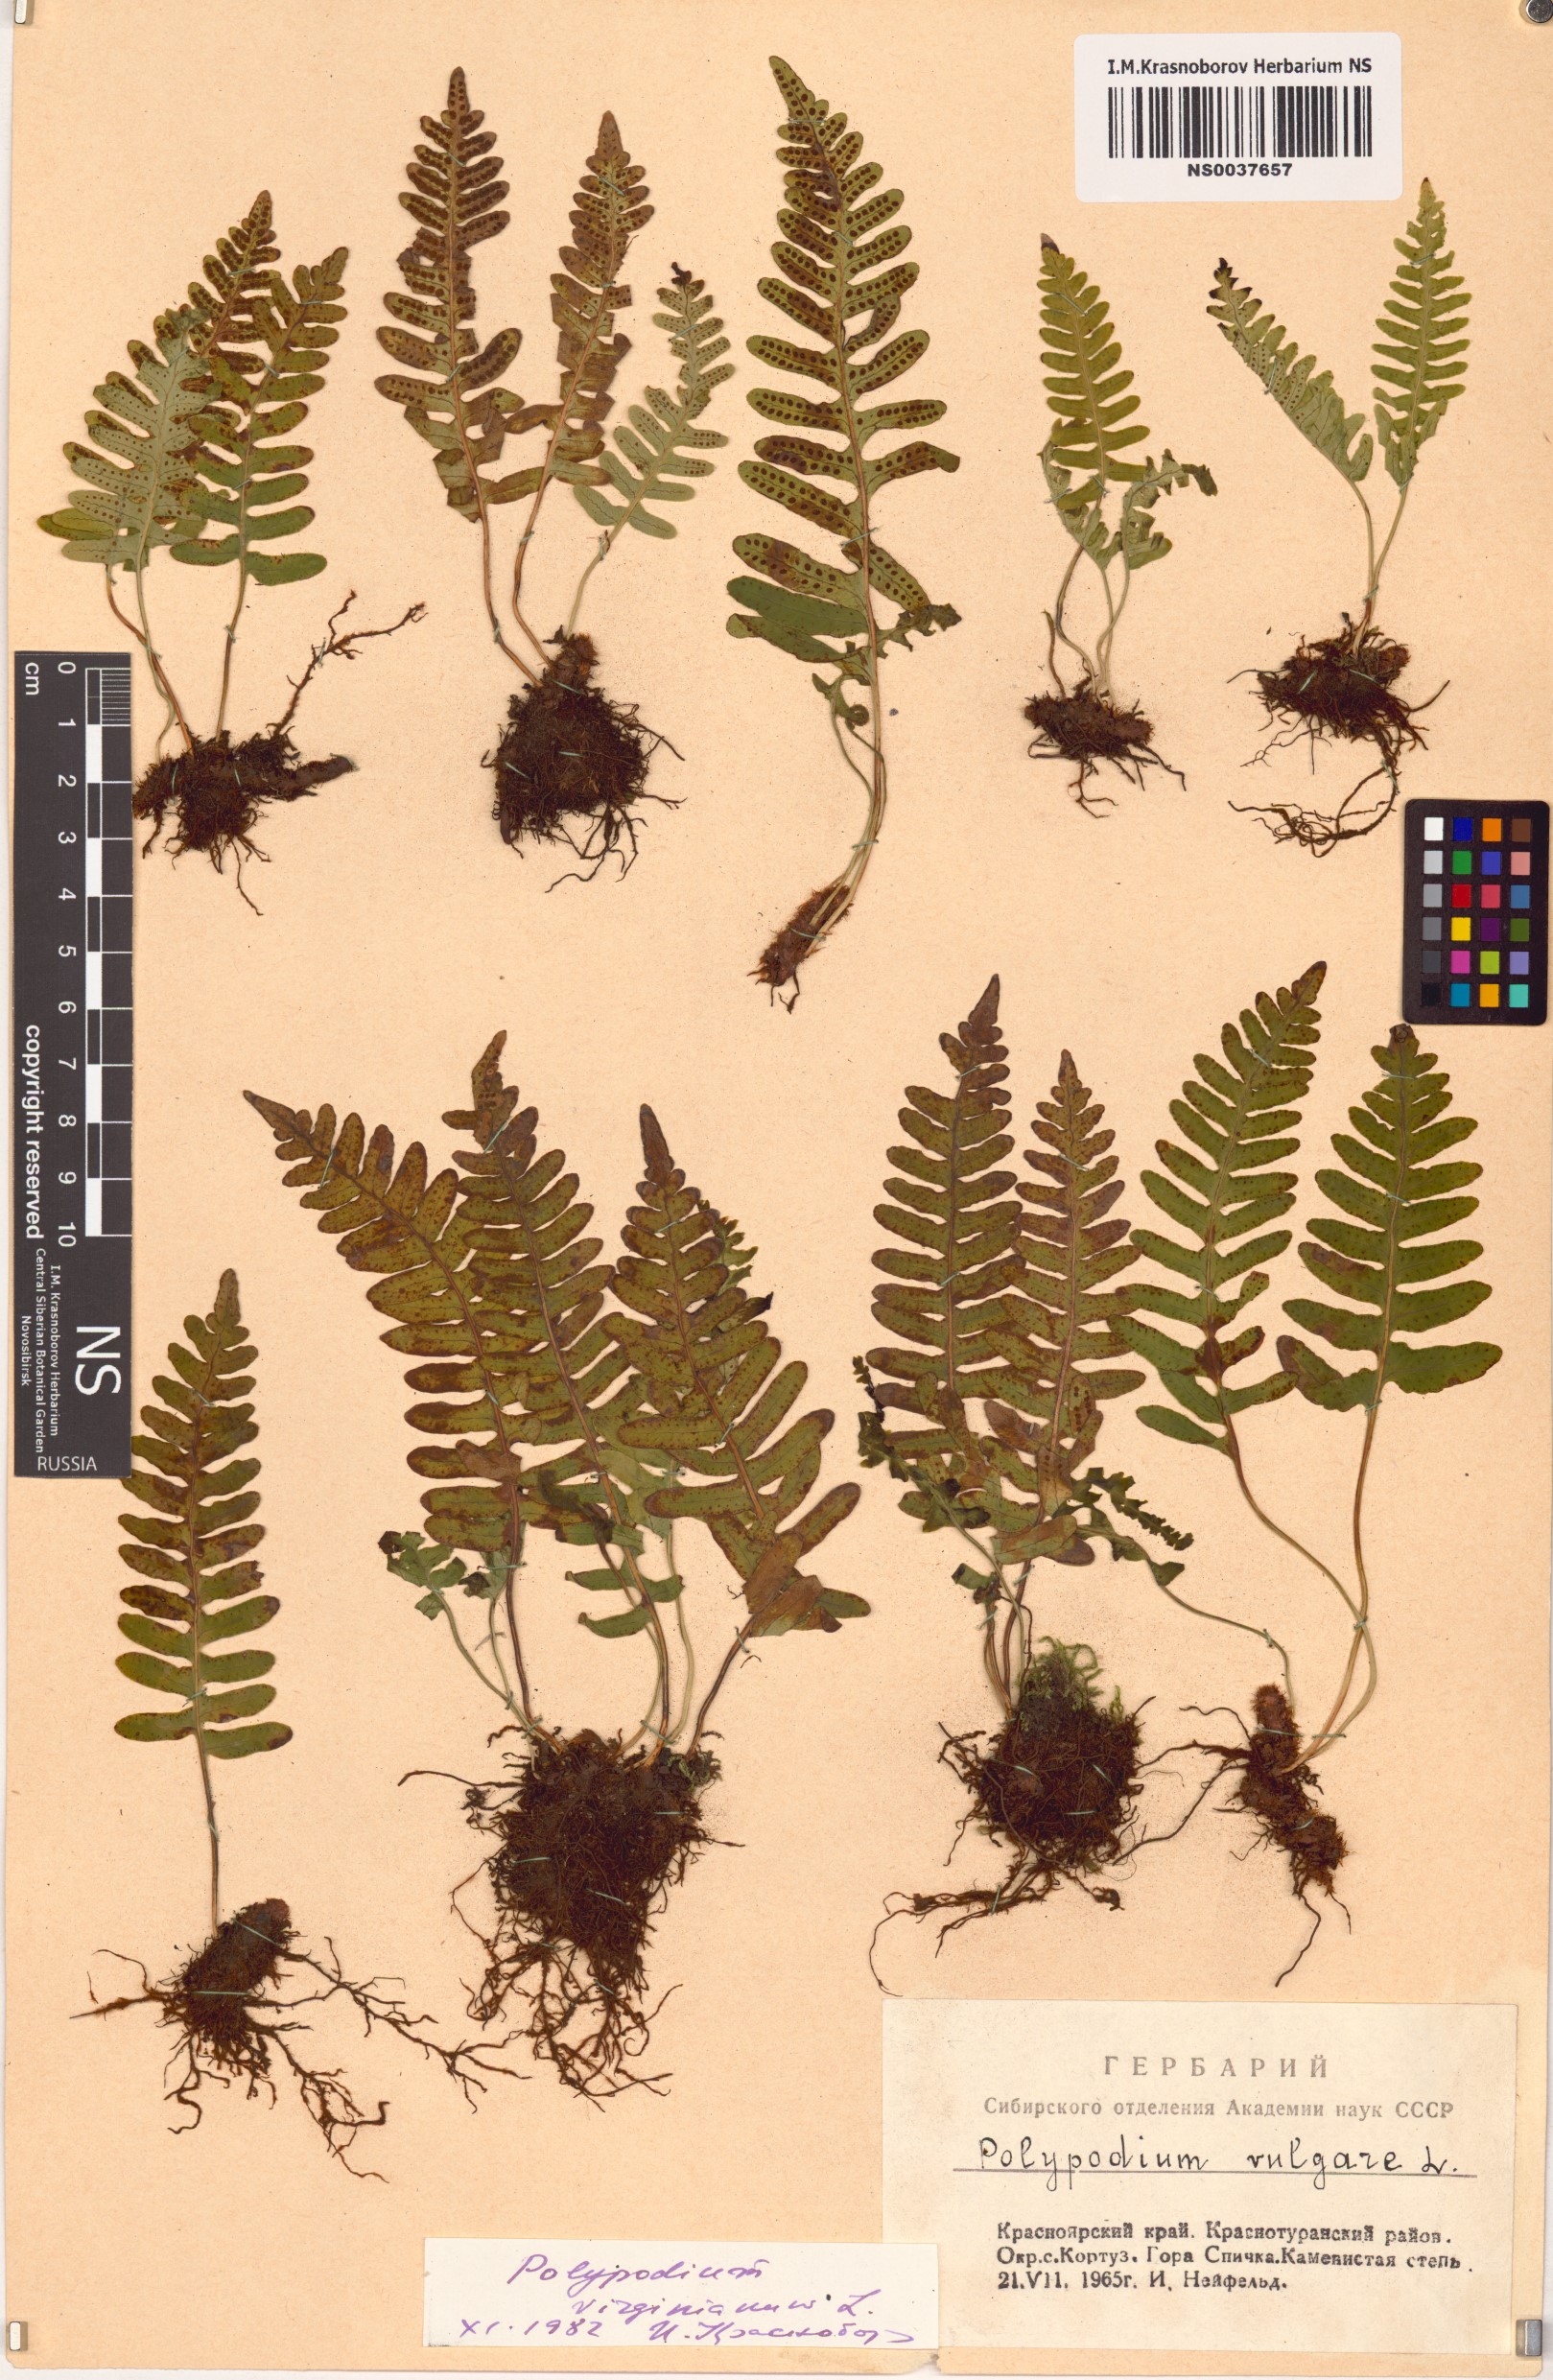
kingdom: Plantae
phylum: Tracheophyta
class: Polypodiopsida
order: Polypodiales
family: Polypodiaceae
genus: Polypodium
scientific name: Polypodium virginianum
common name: American wall fern
